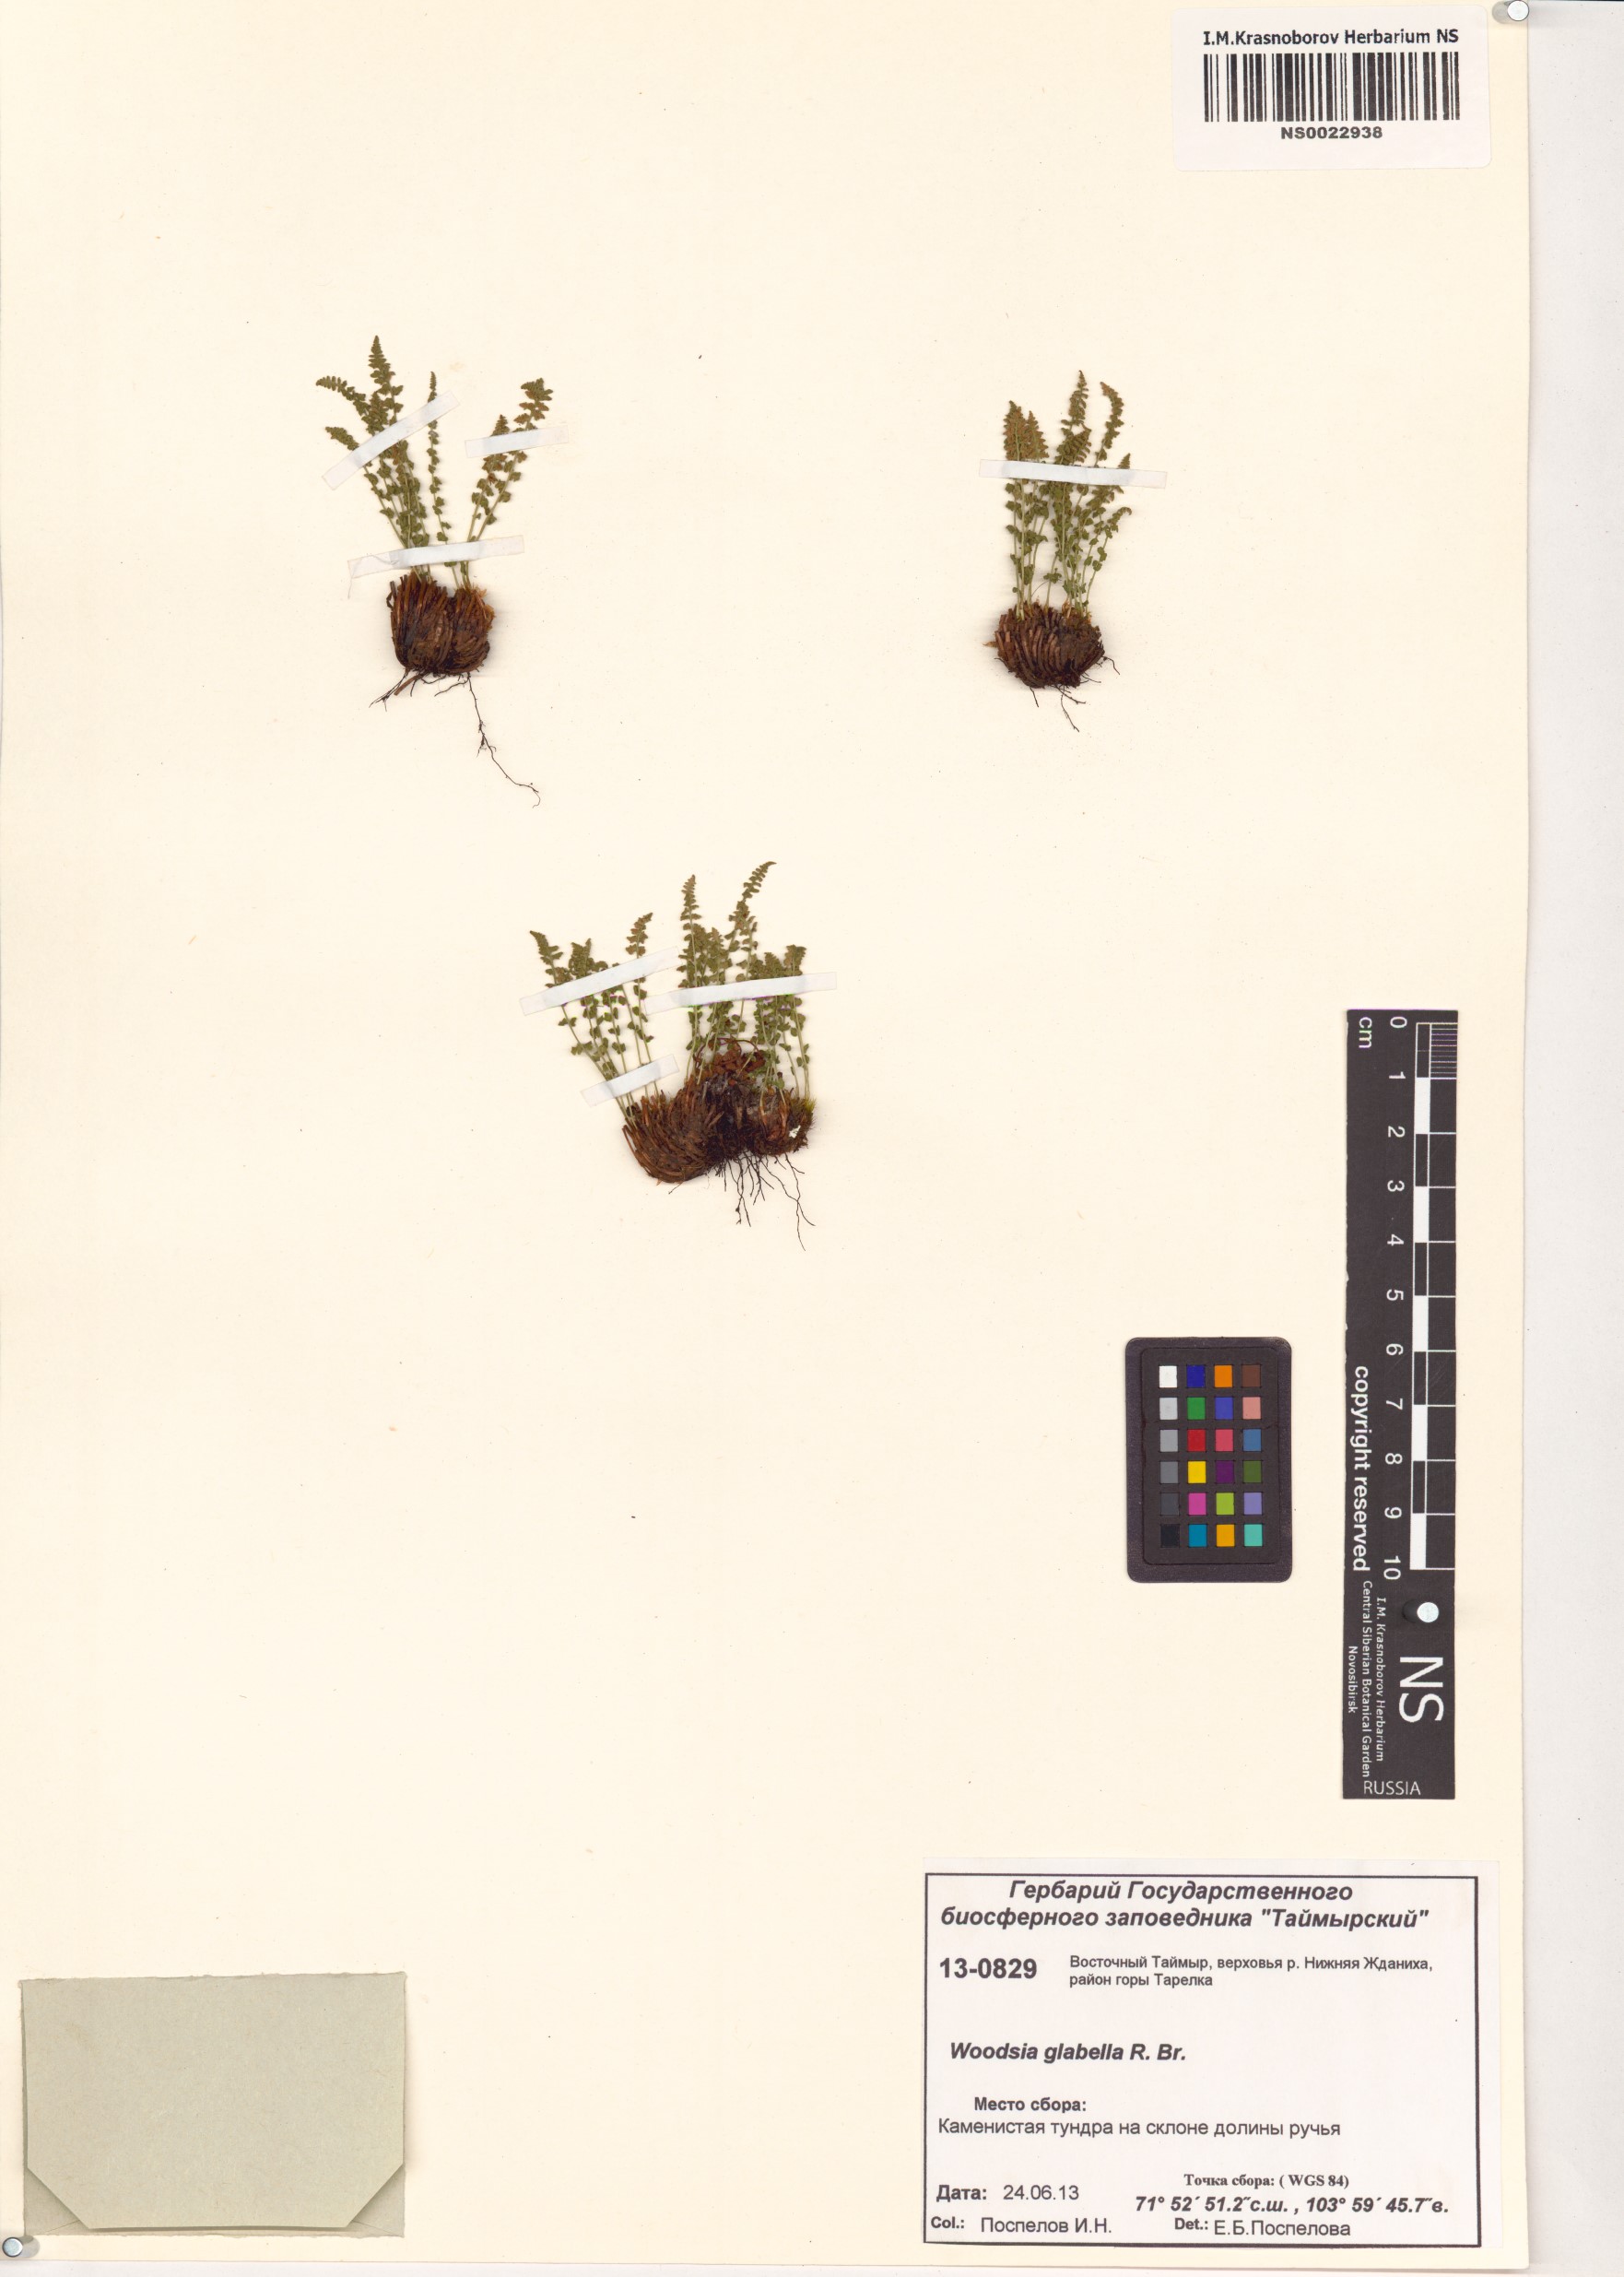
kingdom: Plantae
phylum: Tracheophyta
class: Polypodiopsida
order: Polypodiales
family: Woodsiaceae
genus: Woodsia
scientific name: Woodsia glabella
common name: Smooth woodsia
